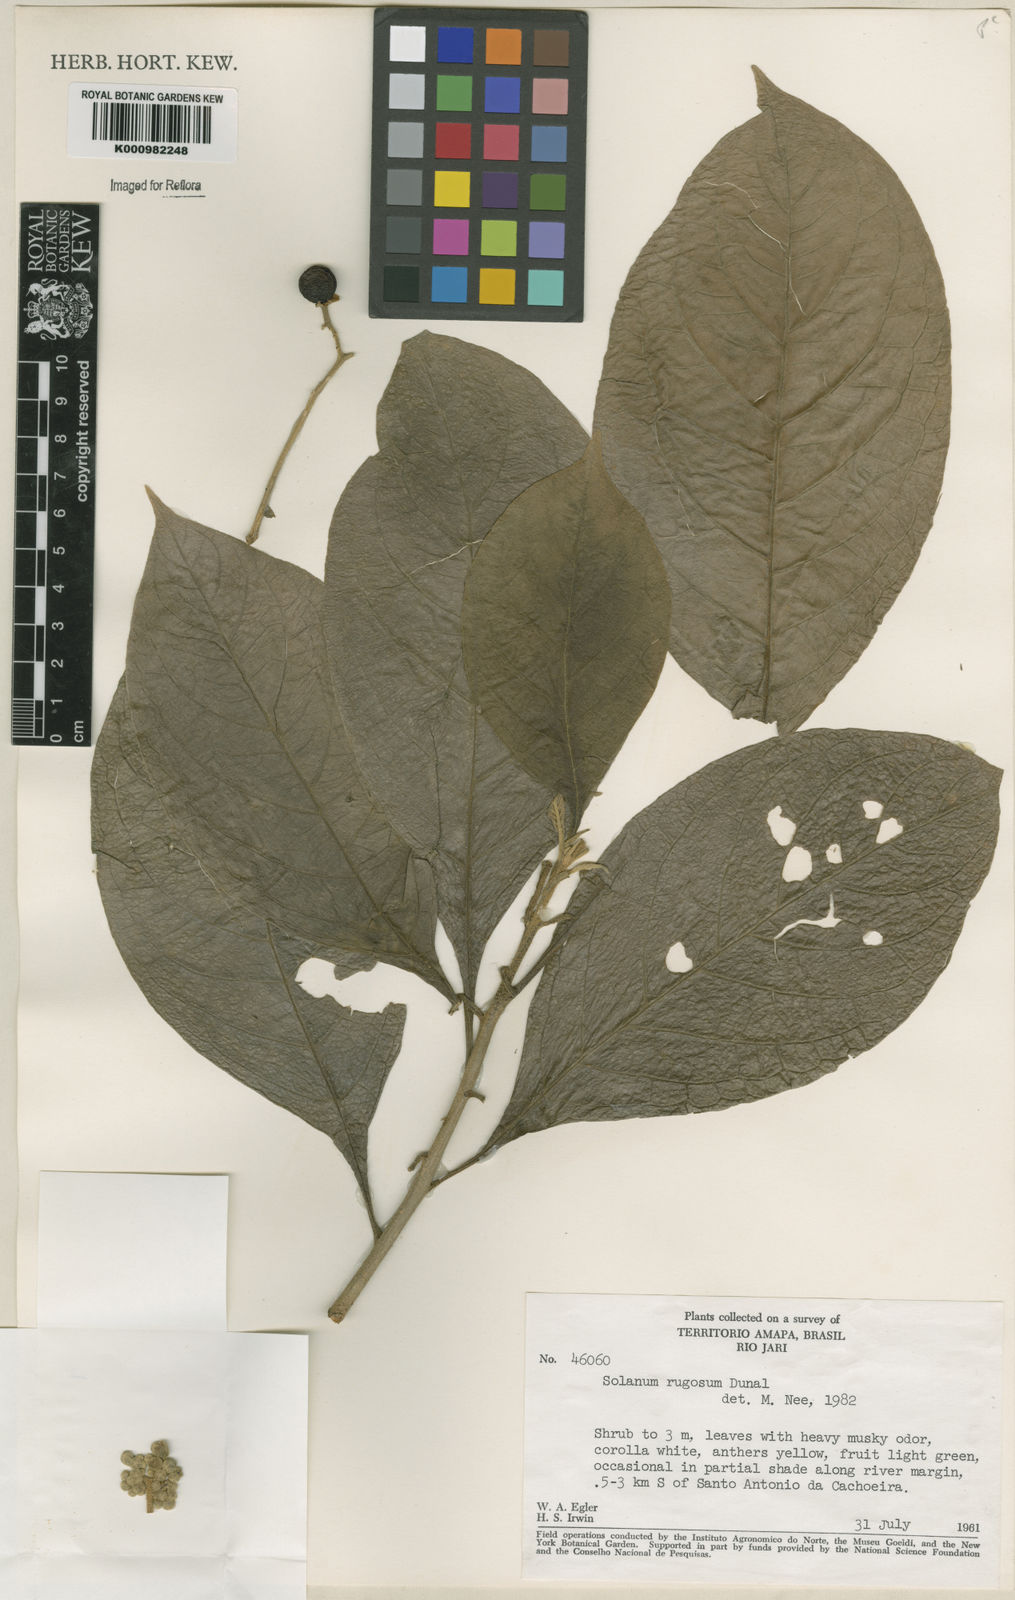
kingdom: Plantae
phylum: Tracheophyta
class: Magnoliopsida
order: Solanales
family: Solanaceae
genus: Solanum
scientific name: Solanum rugosum
